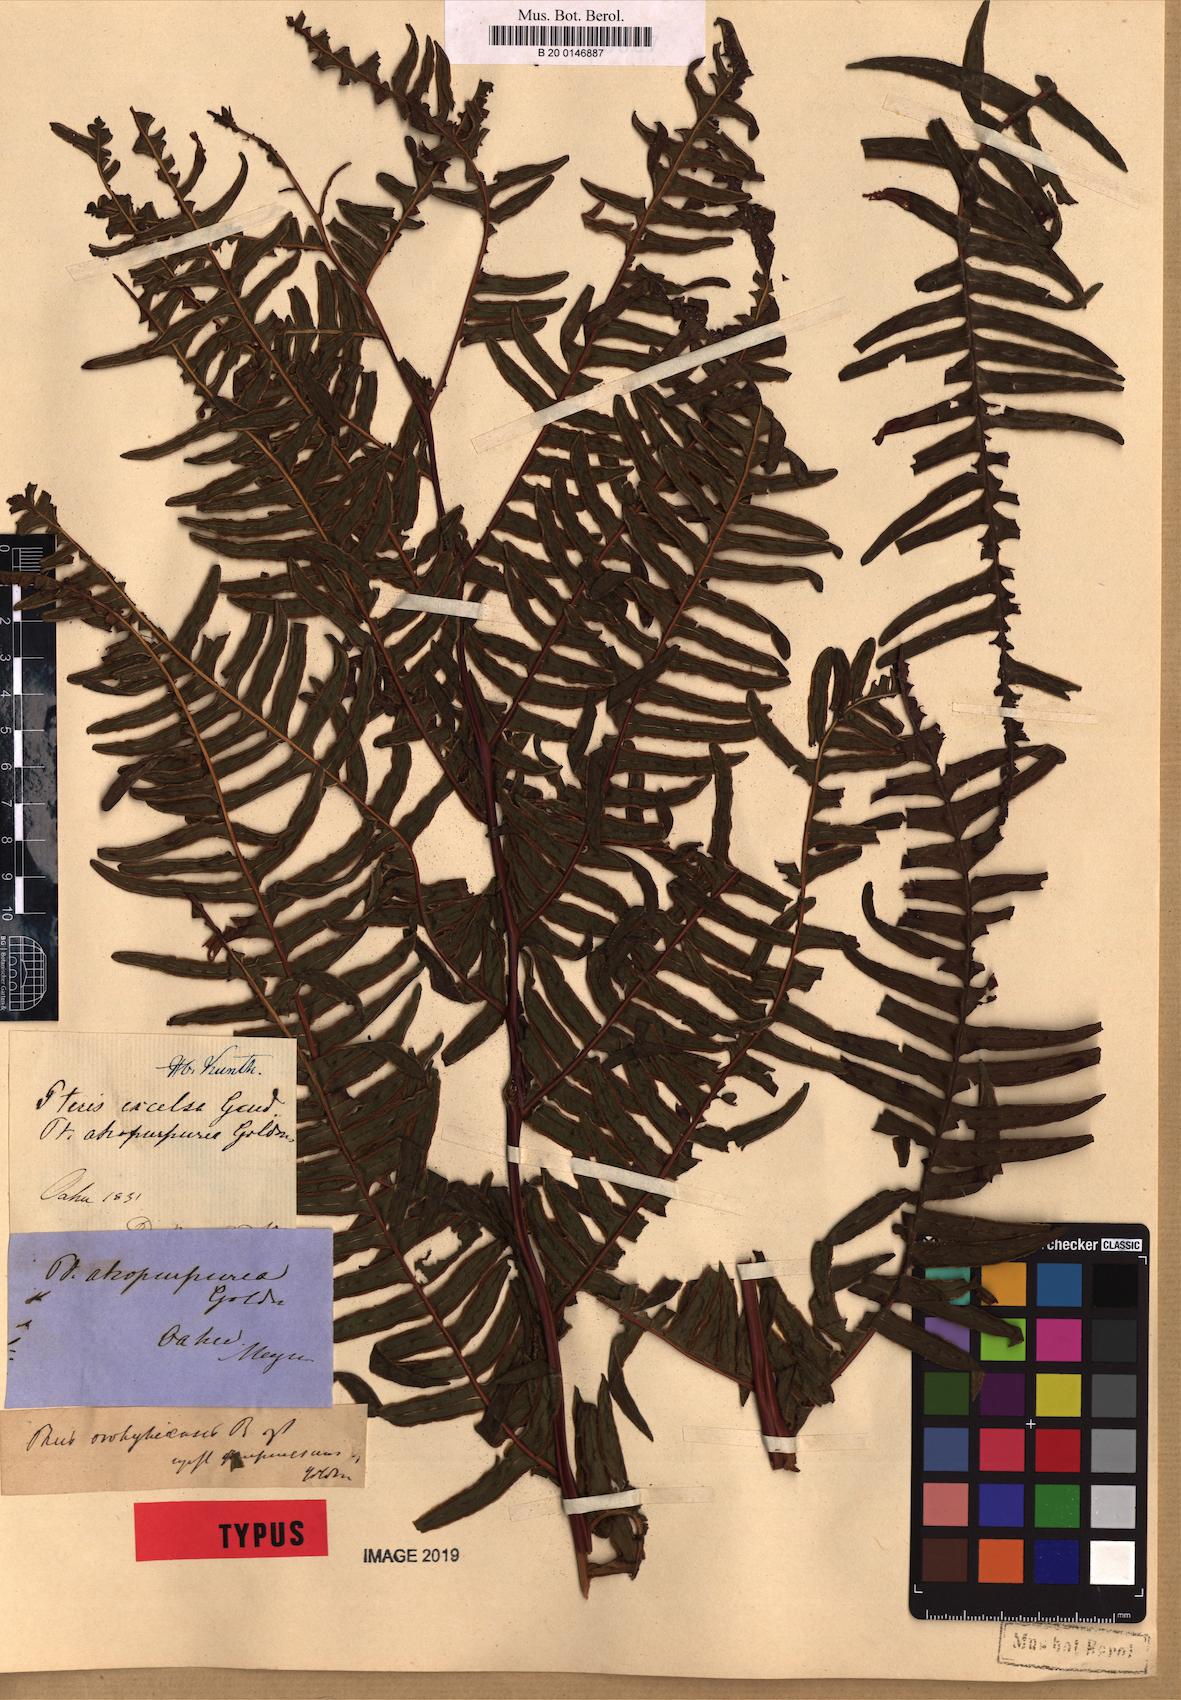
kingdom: Plantae
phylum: Tracheophyta
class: Polypodiopsida
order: Polypodiales
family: Pteridaceae
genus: Pteris
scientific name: Pteris terminalis
